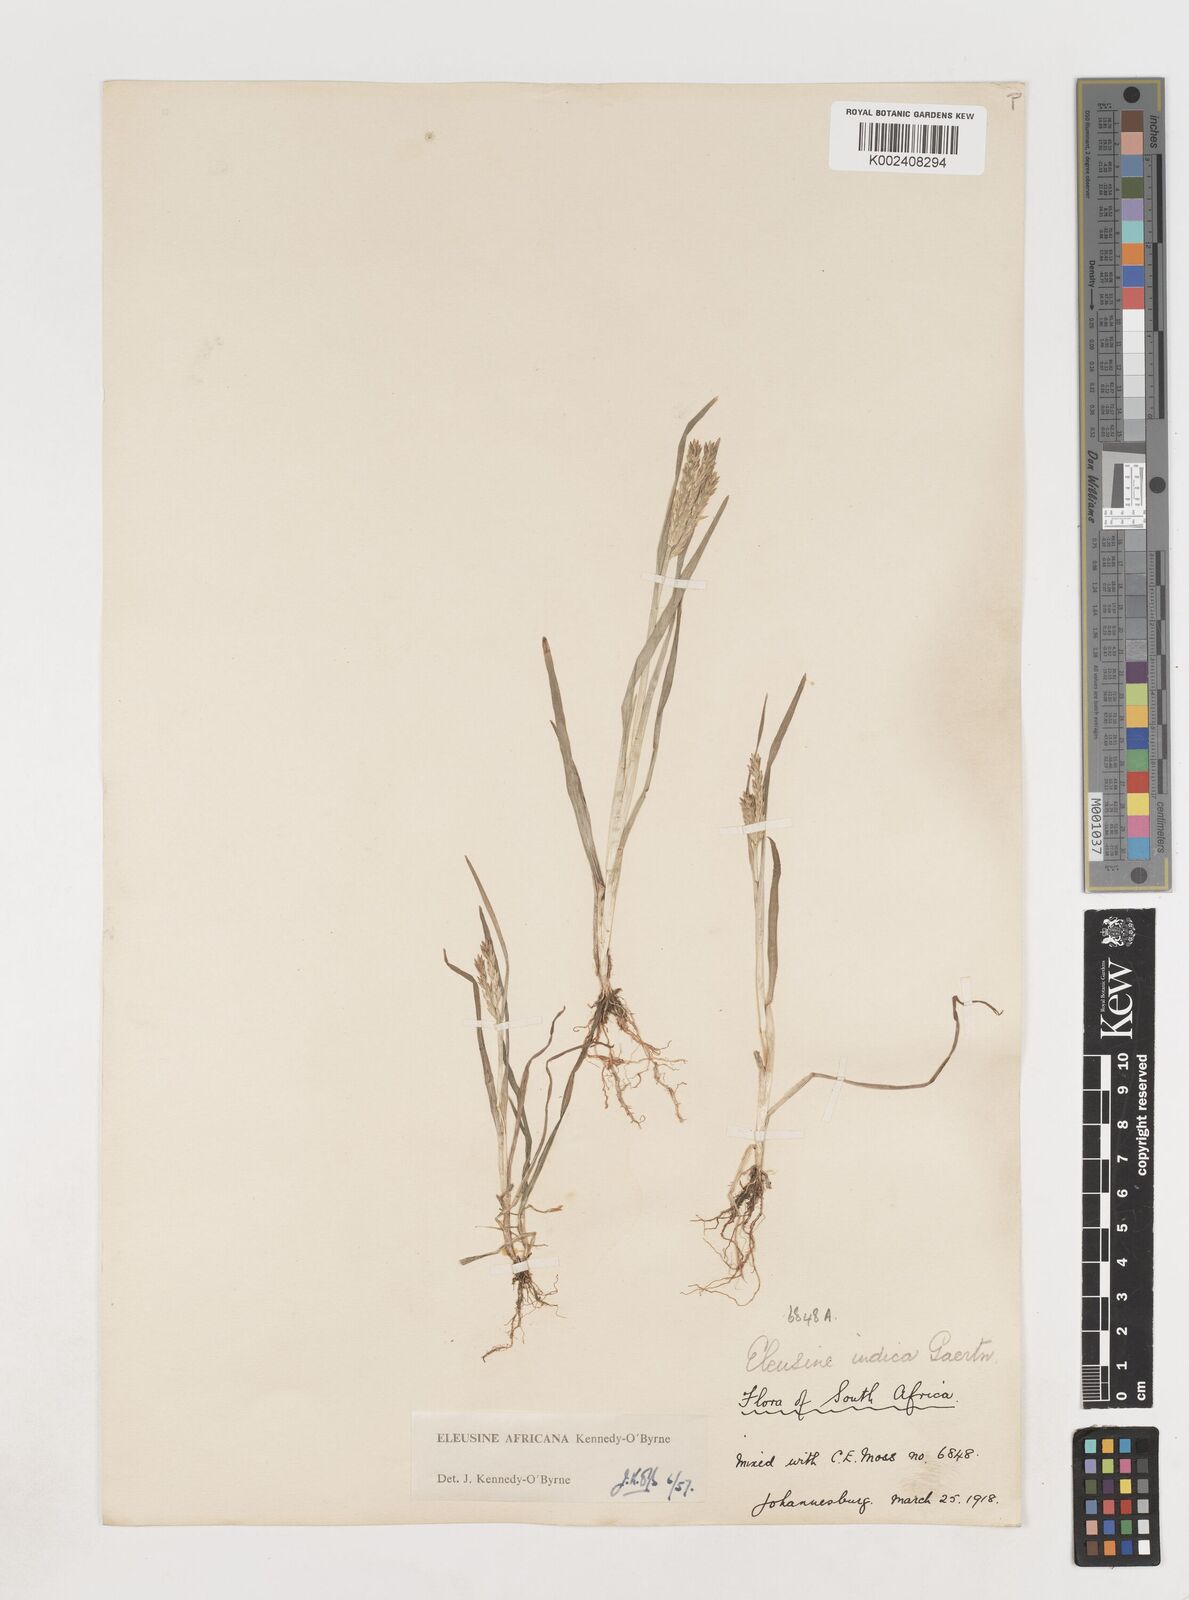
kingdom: Plantae
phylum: Tracheophyta
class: Liliopsida
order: Poales
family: Poaceae
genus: Eleusine
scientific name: Eleusine africana
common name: Wild african finger millet
